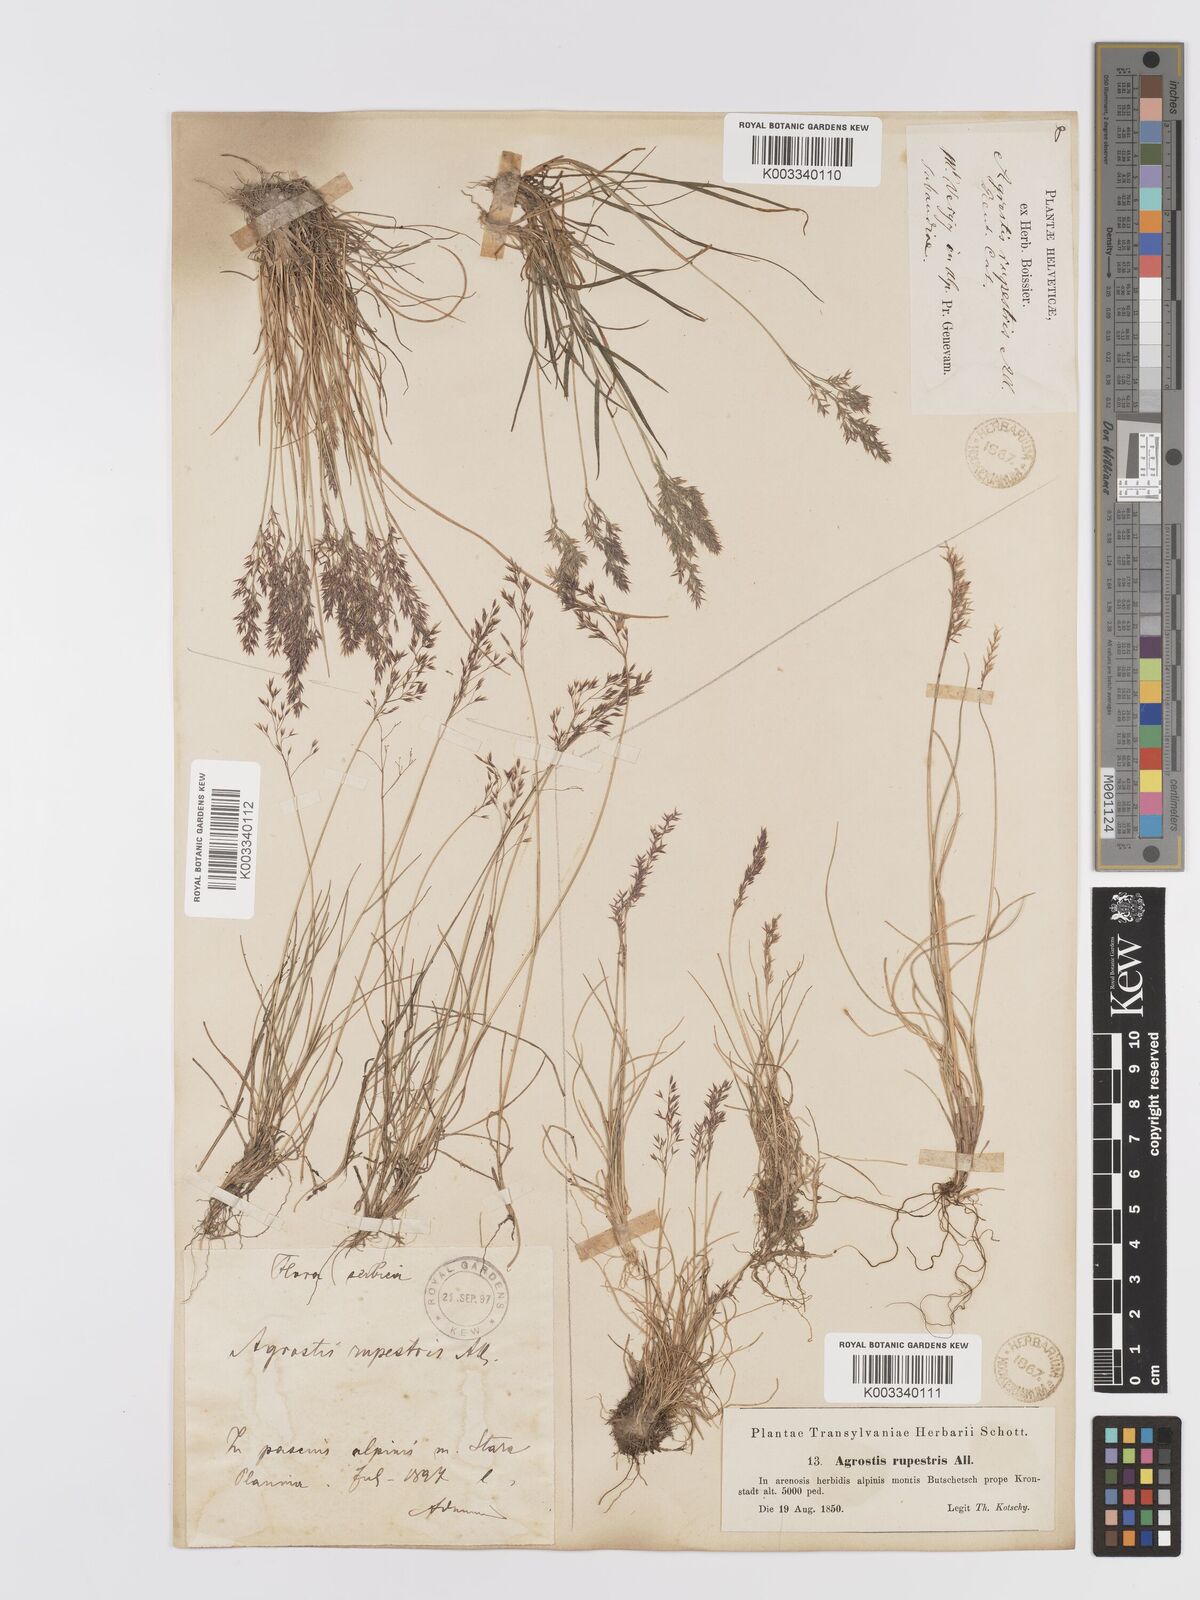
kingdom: Plantae
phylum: Tracheophyta
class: Liliopsida
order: Poales
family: Poaceae
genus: Agrostis
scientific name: Agrostis rupestris
